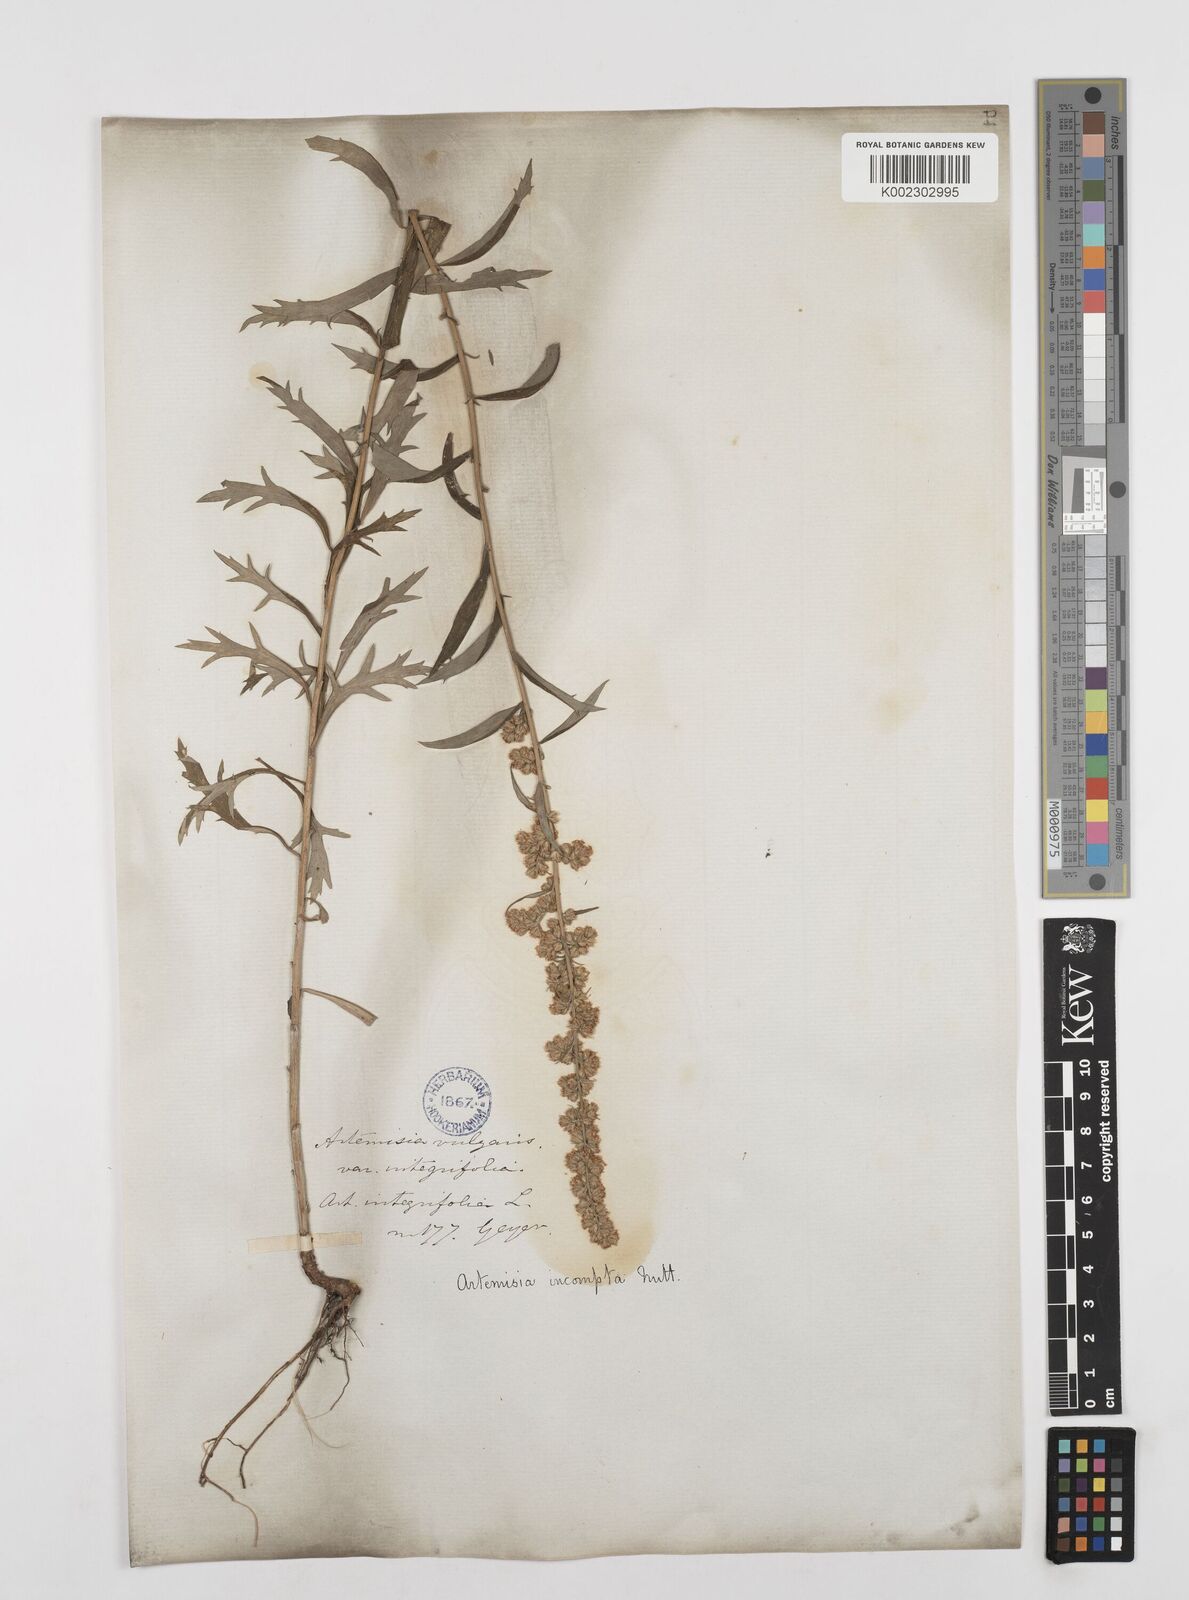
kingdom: Plantae
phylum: Tracheophyta
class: Magnoliopsida
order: Asterales
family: Asteraceae
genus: Artemisia
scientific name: Artemisia michauxiana
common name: Lemon sagewort
